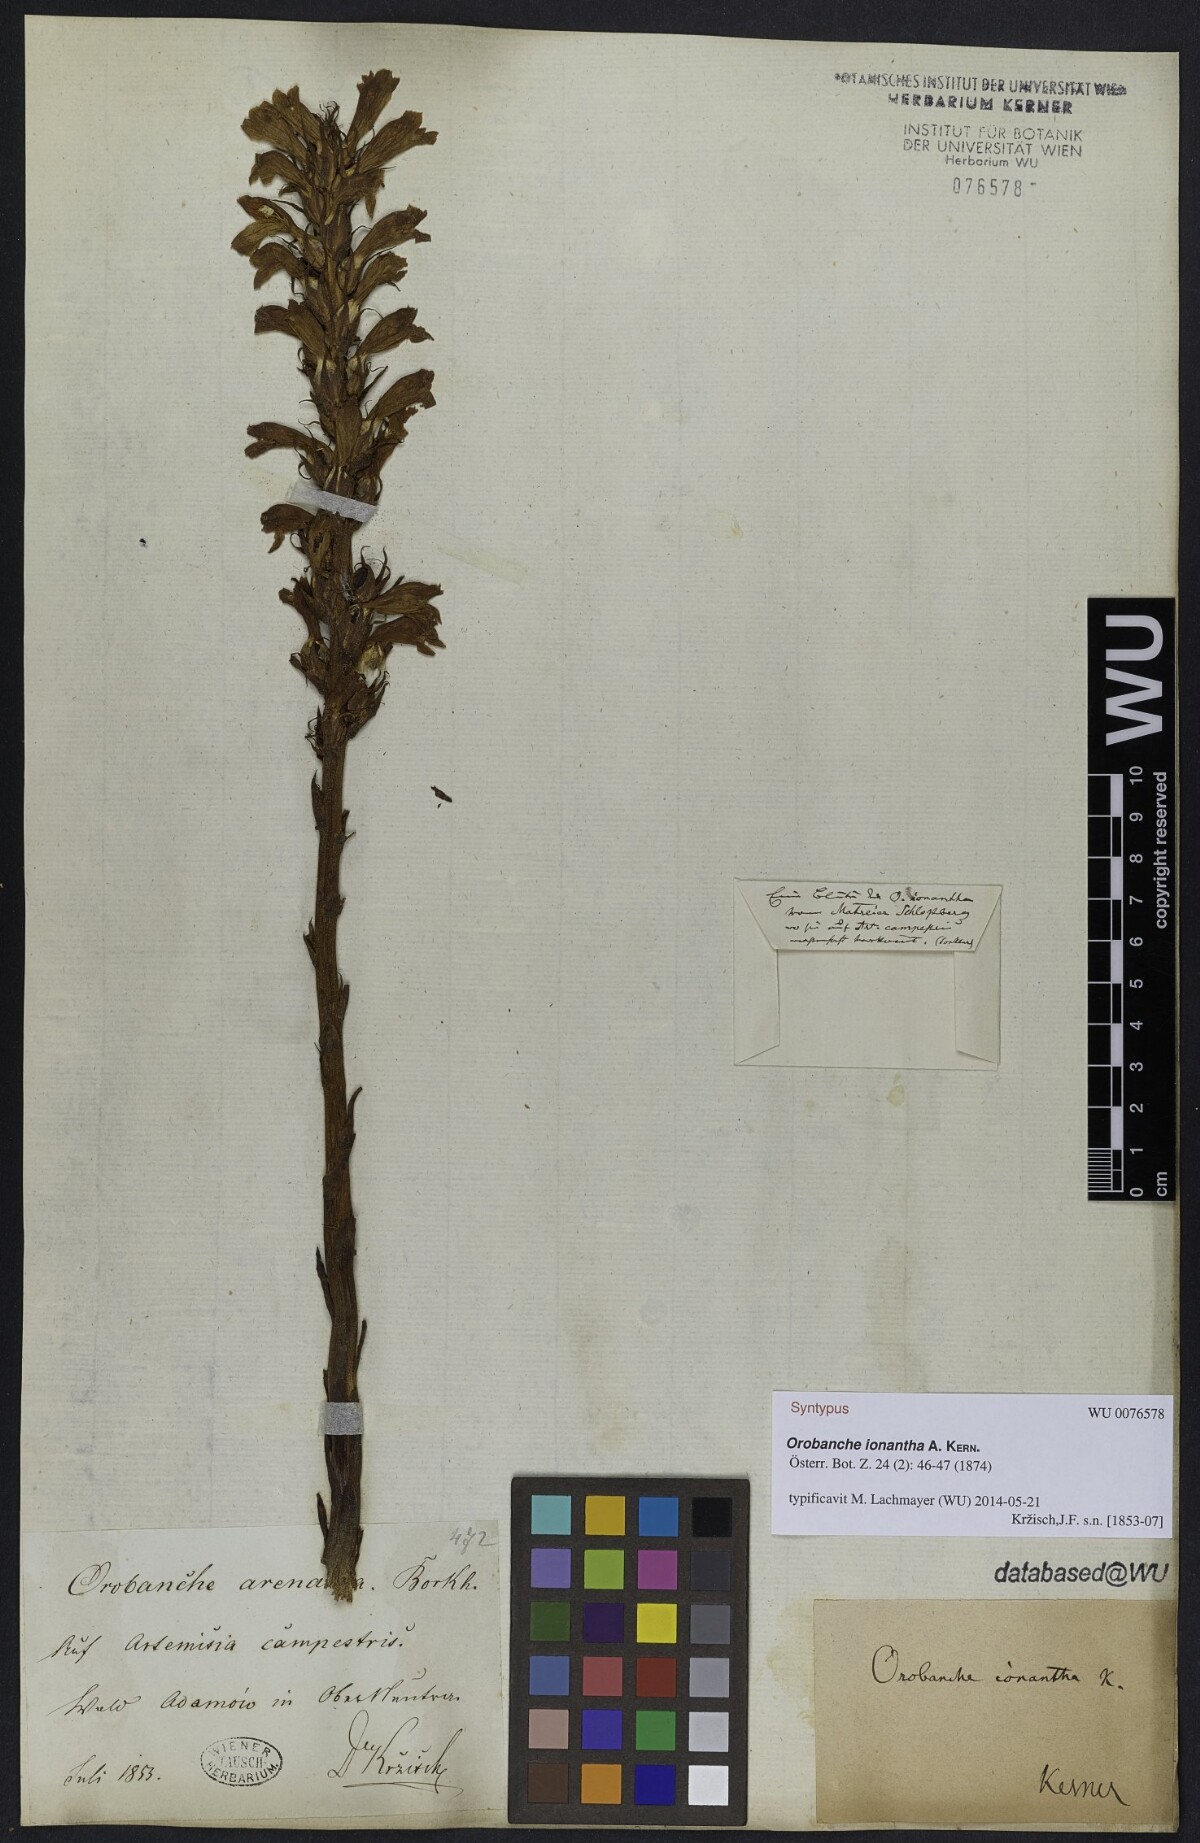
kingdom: Plantae
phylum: Tracheophyta
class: Magnoliopsida
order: Lamiales
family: Orobanchaceae
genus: Phelipanche
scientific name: Phelipanche arenaria
